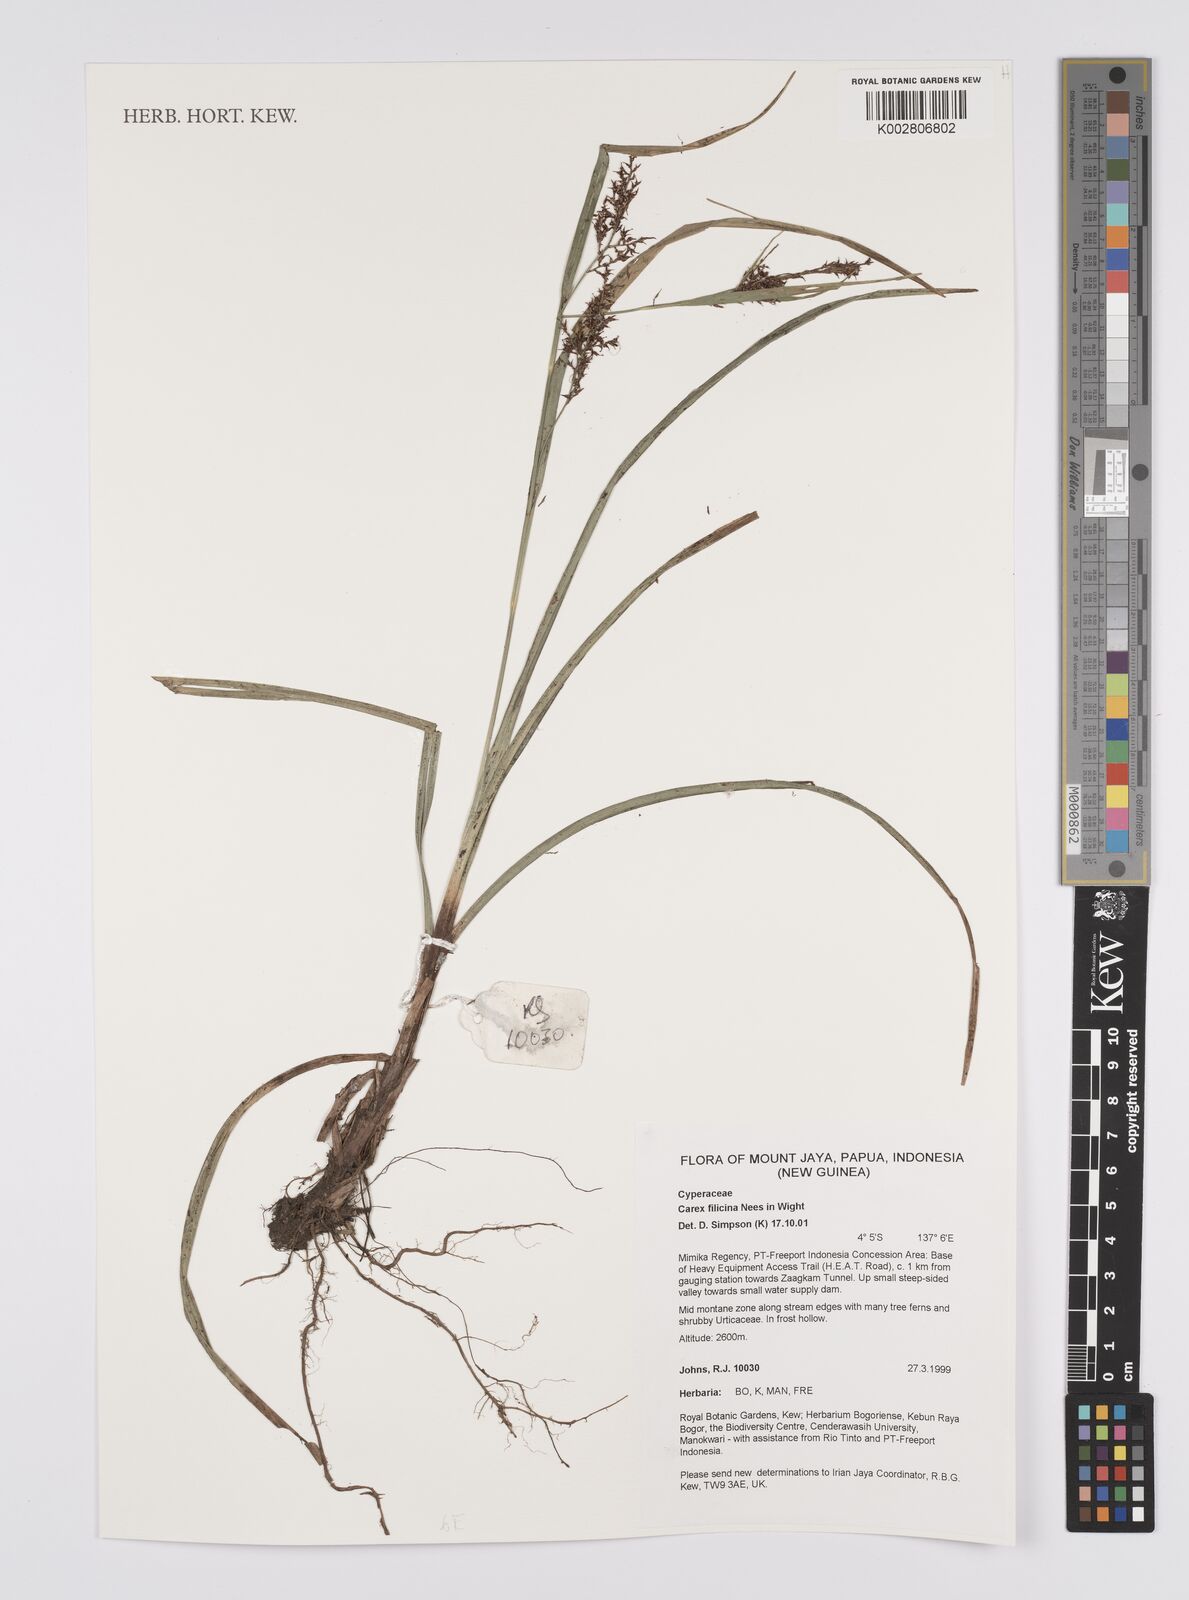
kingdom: Plantae
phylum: Tracheophyta
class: Liliopsida
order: Poales
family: Cyperaceae
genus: Carex
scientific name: Carex filicina
